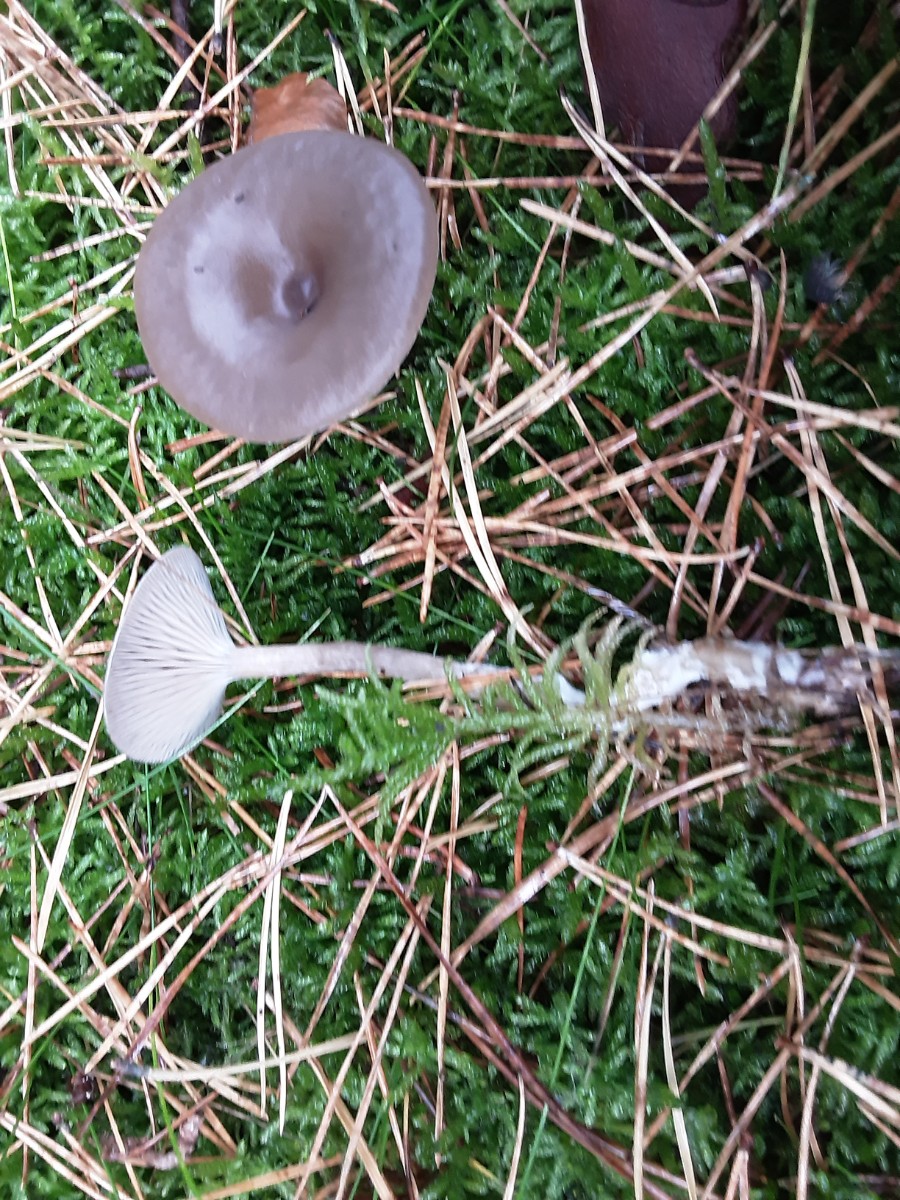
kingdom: Fungi
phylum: Basidiomycota
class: Agaricomycetes
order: Agaricales
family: Pseudoclitocybaceae
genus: Pseudoclitocybe
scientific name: Pseudoclitocybe cyathiformis
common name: almindelig bægertragthat
